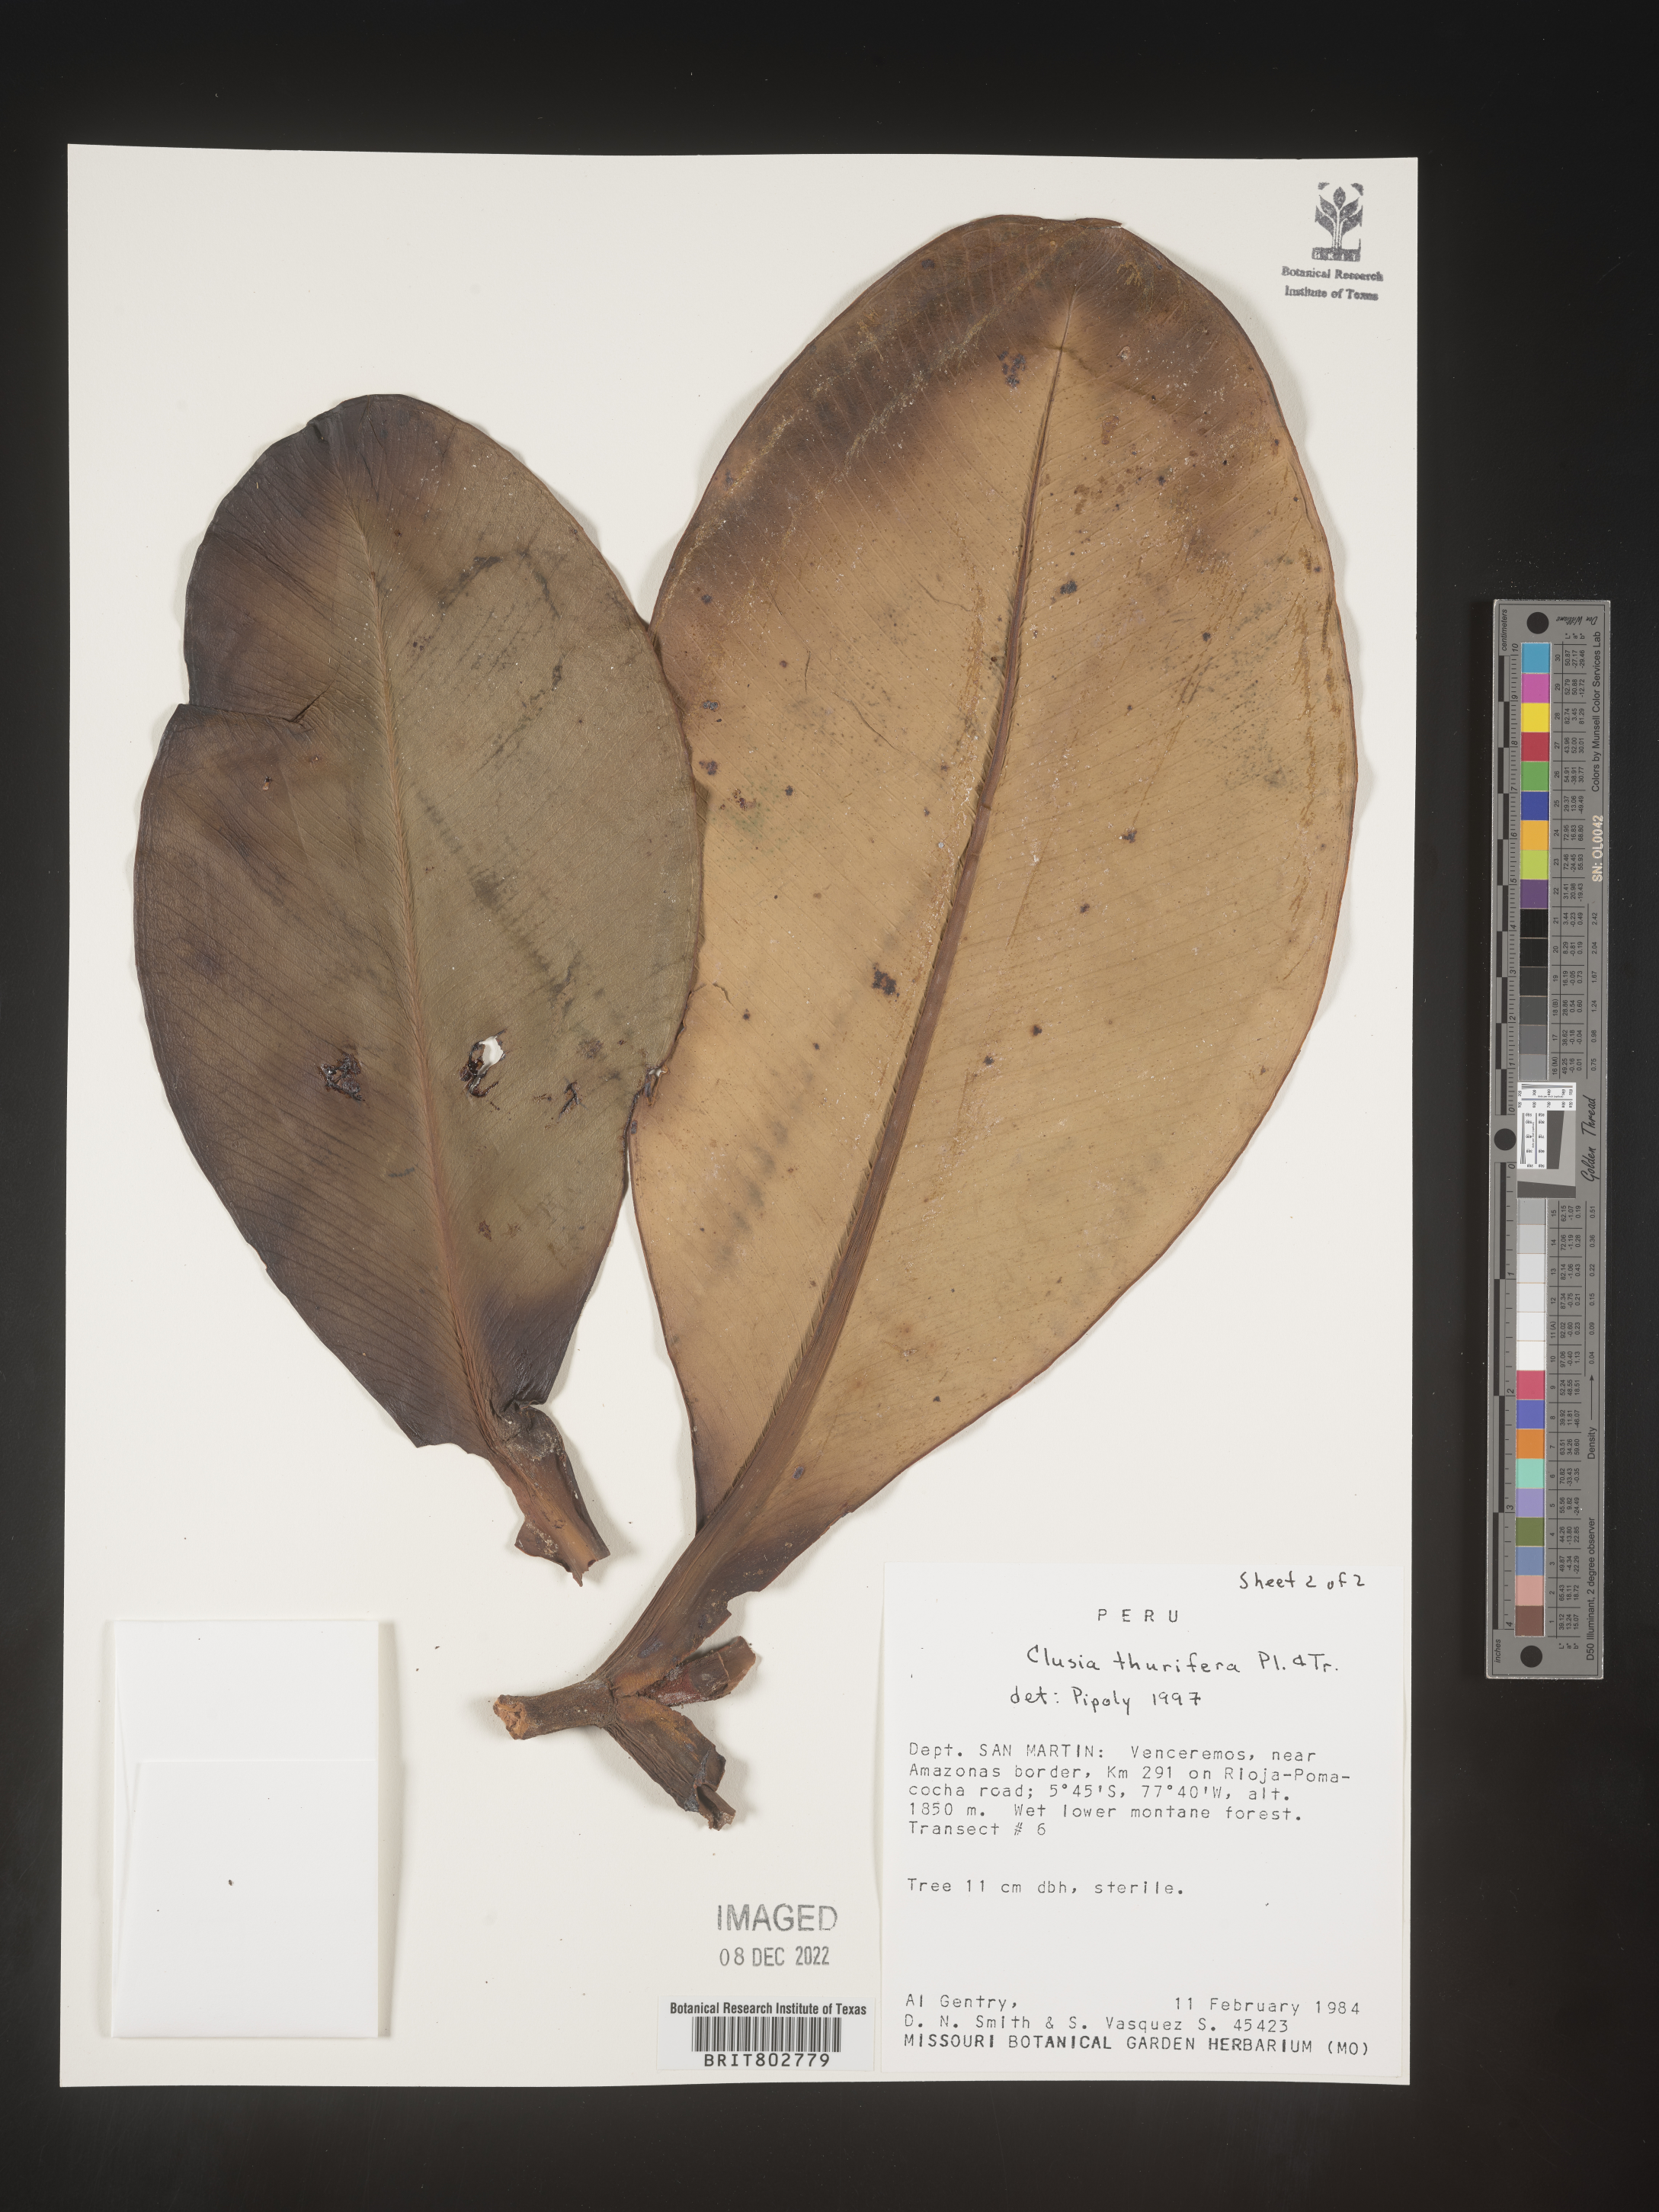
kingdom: Plantae
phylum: Tracheophyta
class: Magnoliopsida
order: Malpighiales
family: Clusiaceae
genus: Clusia
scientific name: Clusia thurifera
